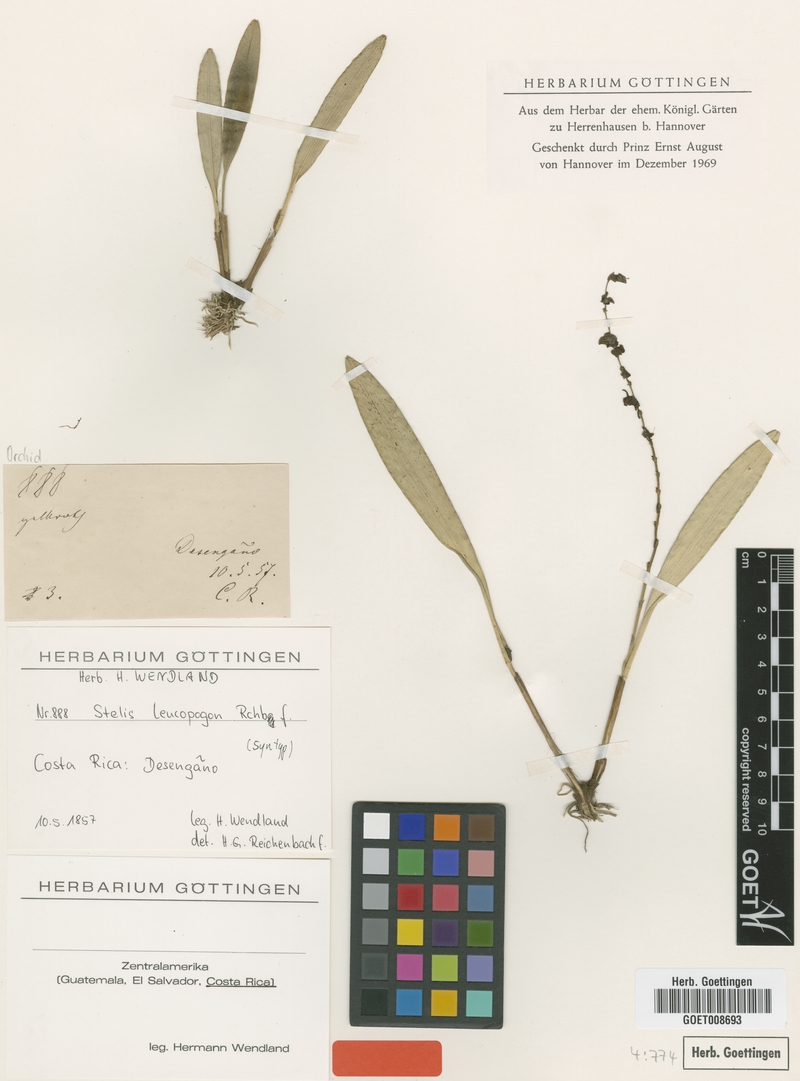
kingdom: Plantae
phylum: Tracheophyta
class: Liliopsida
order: Asparagales
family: Orchidaceae
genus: Stelis
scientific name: Stelis superbiens
